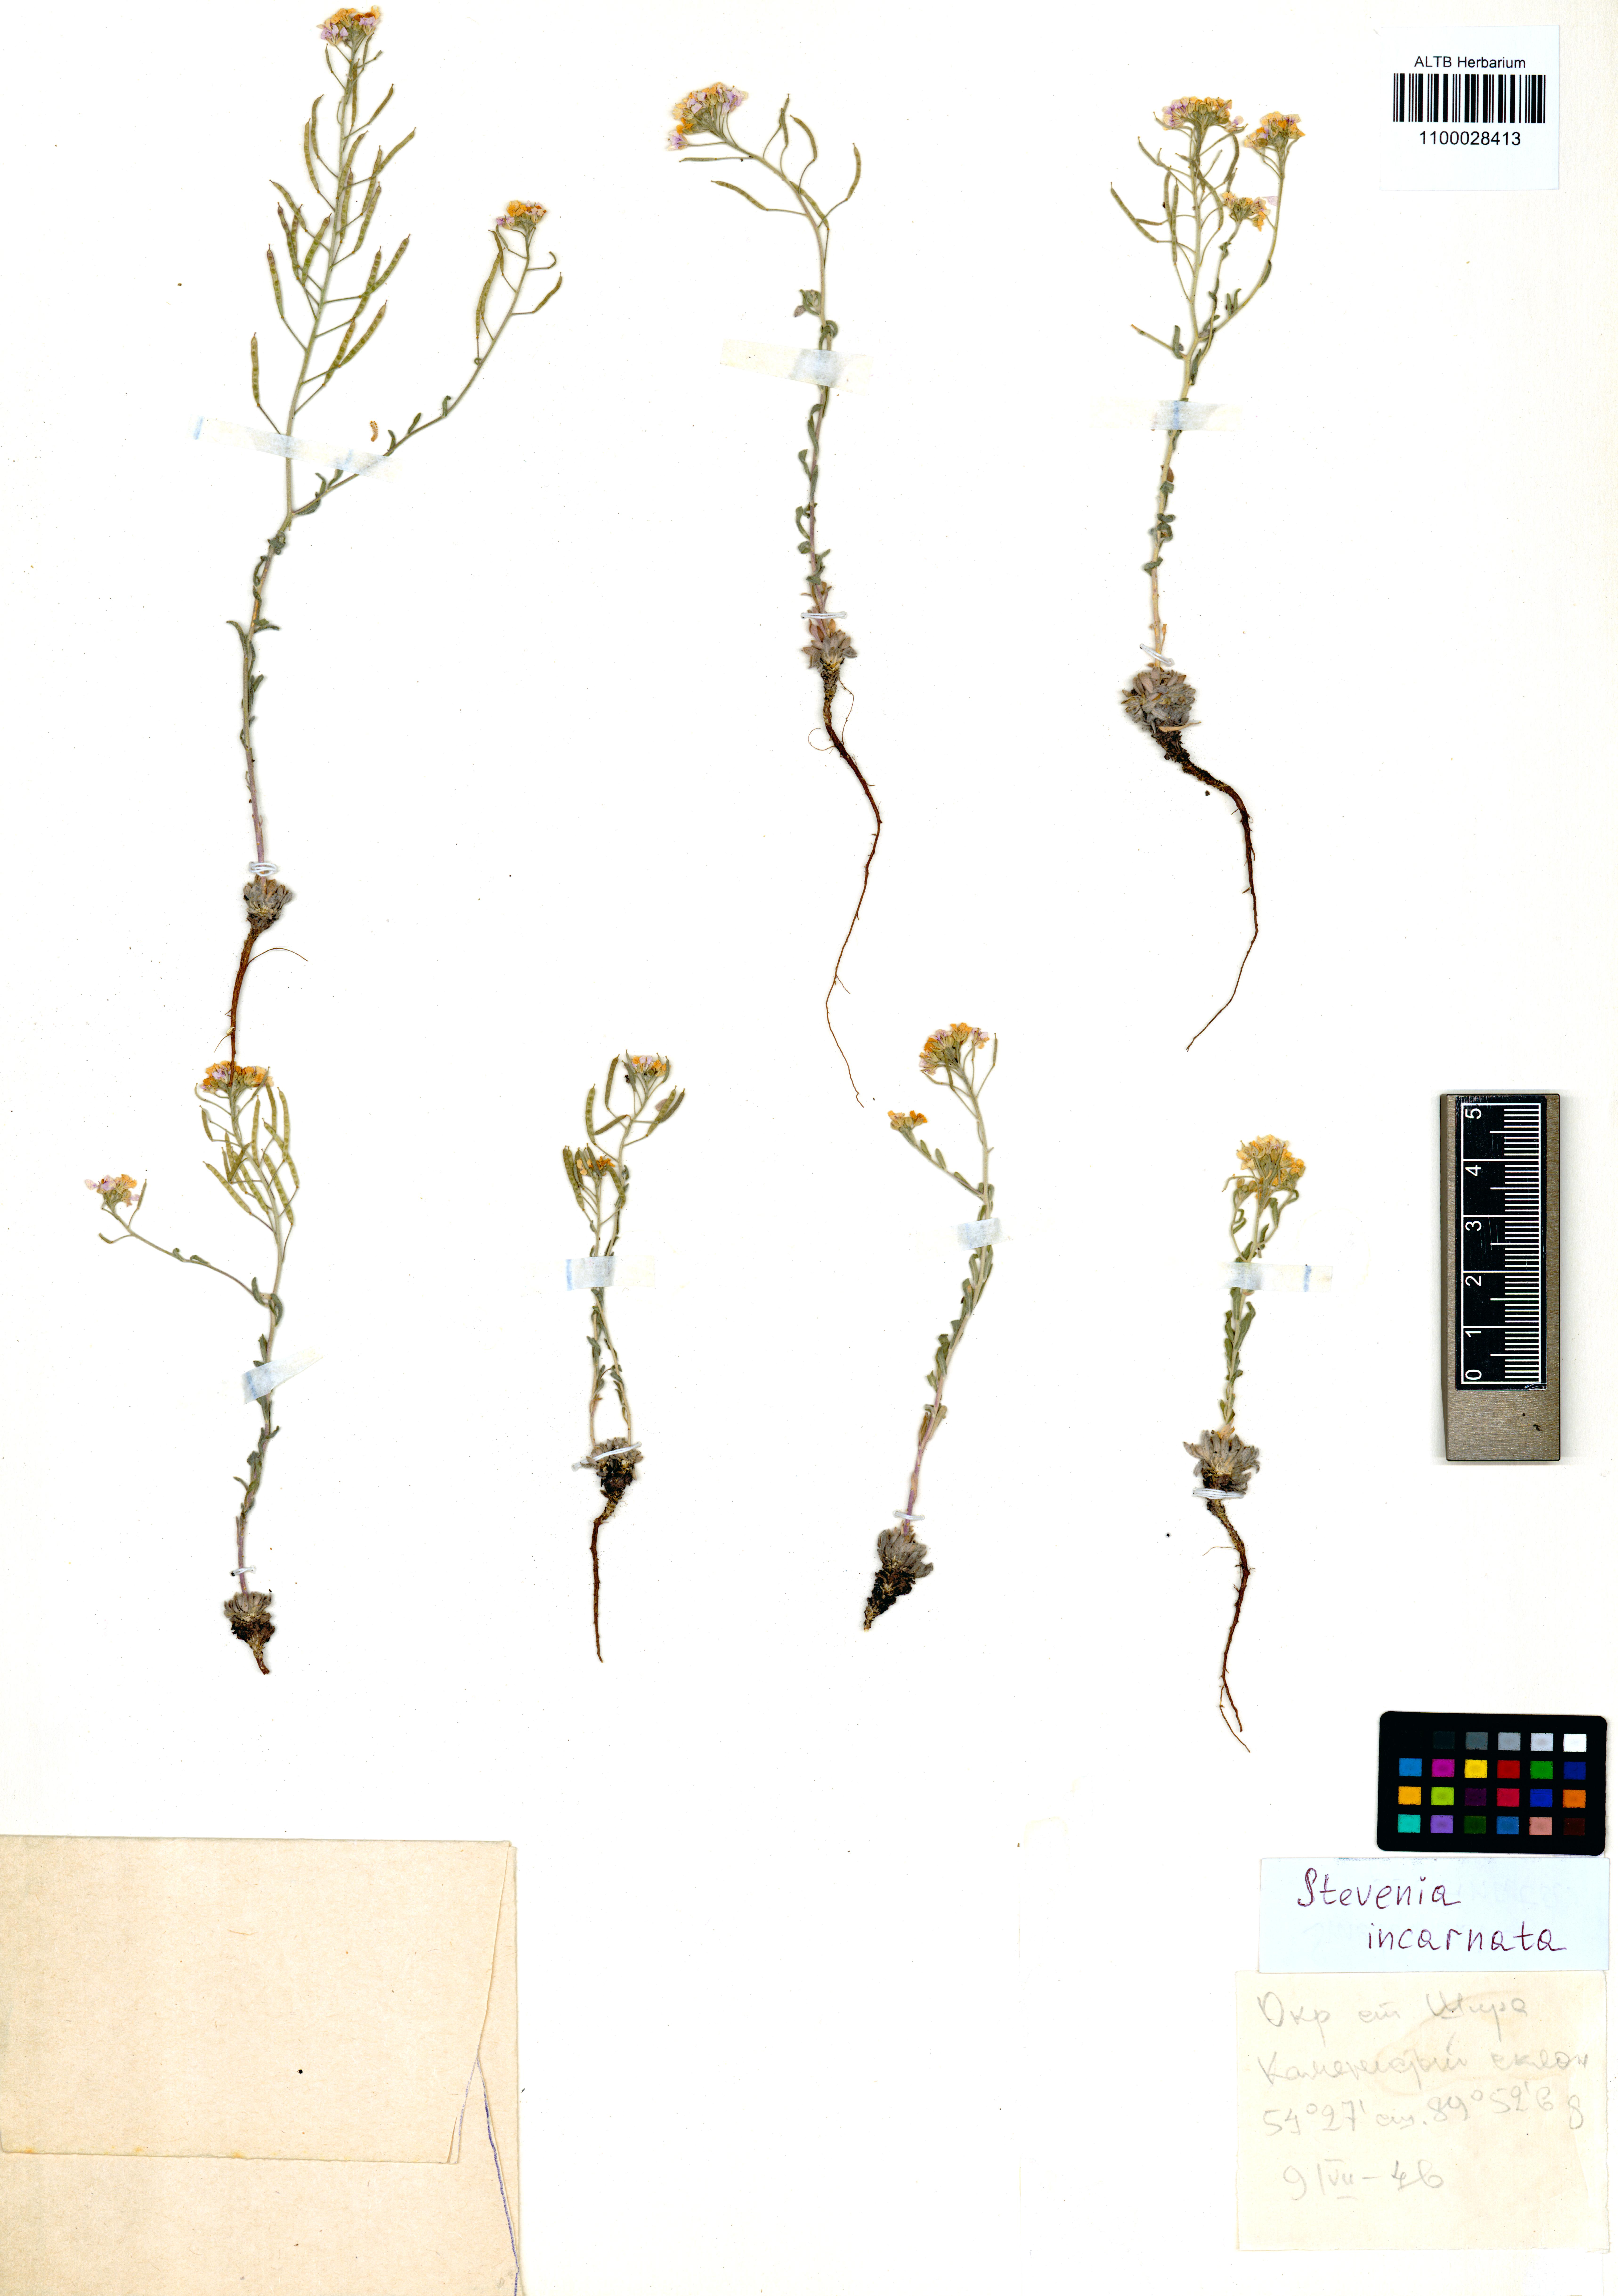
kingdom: Plantae
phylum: Tracheophyta
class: Magnoliopsida
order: Brassicales
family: Brassicaceae
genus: Stevenia
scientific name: Stevenia incarnata
